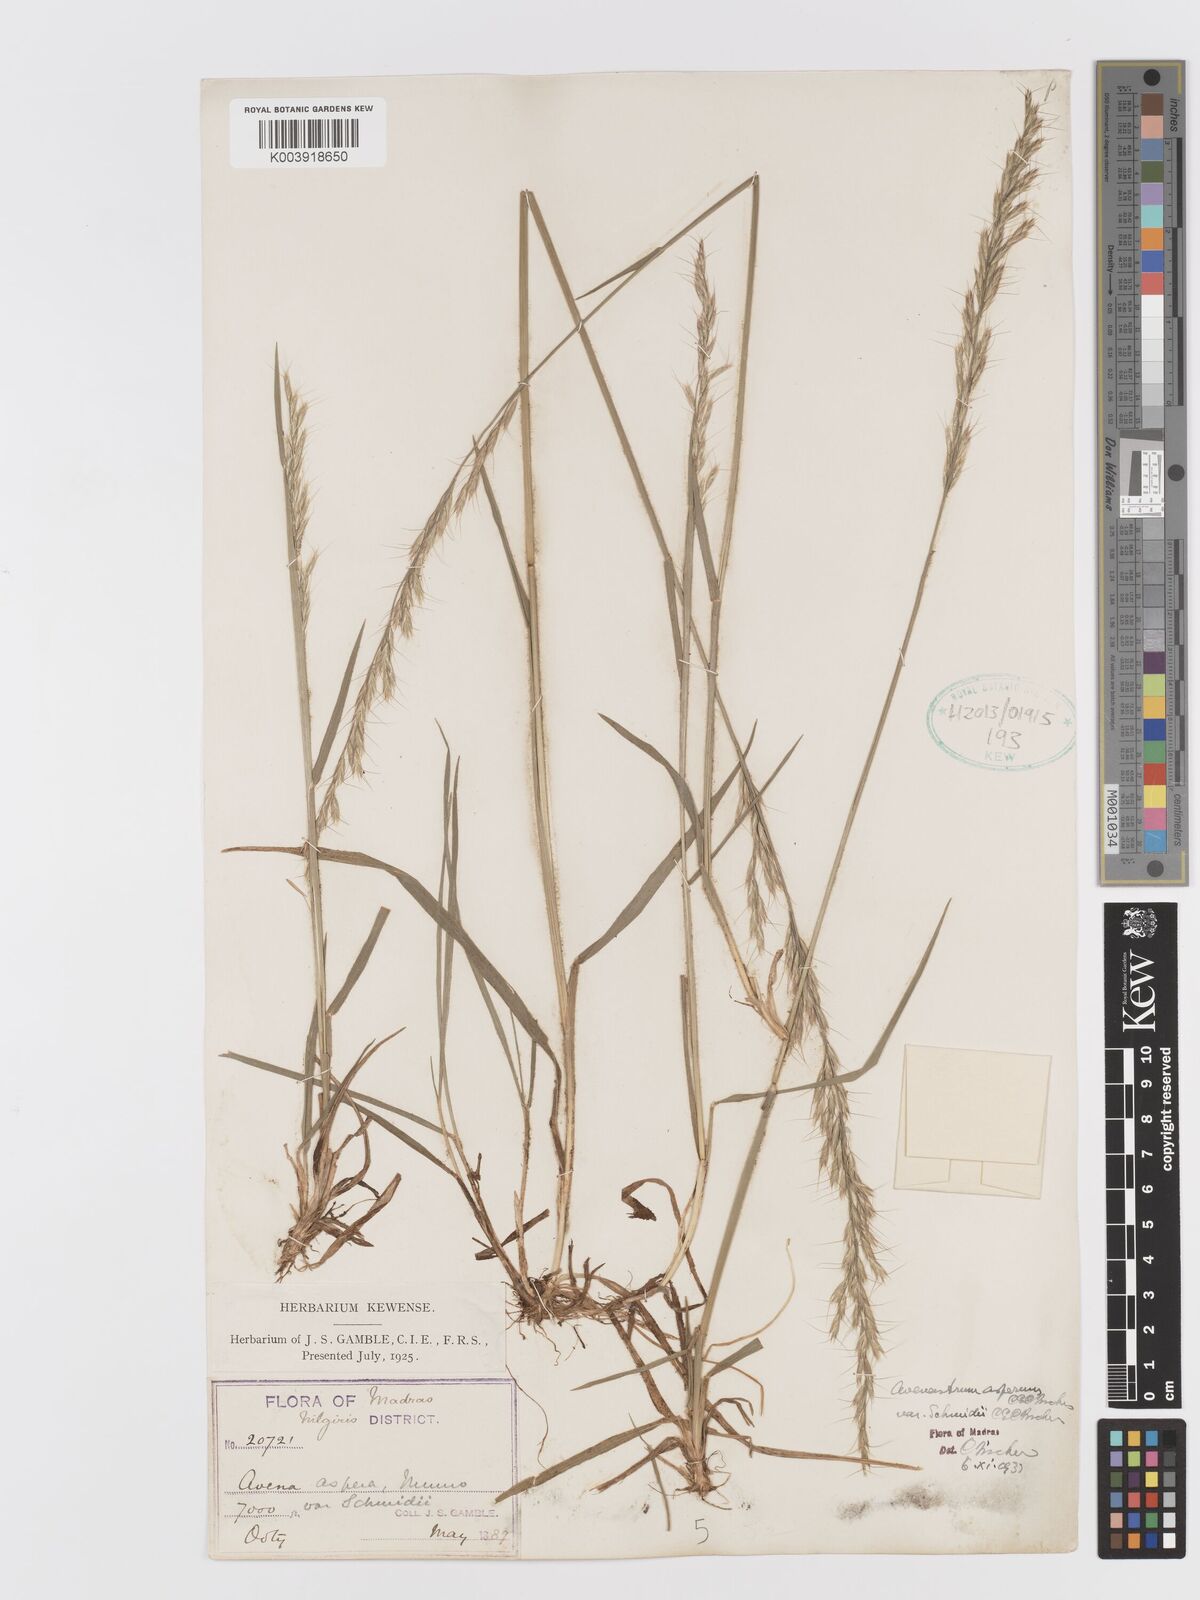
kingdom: Plantae
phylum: Tracheophyta
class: Liliopsida
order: Poales
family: Poaceae
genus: Trisetopsis
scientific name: Trisetopsis aspera
